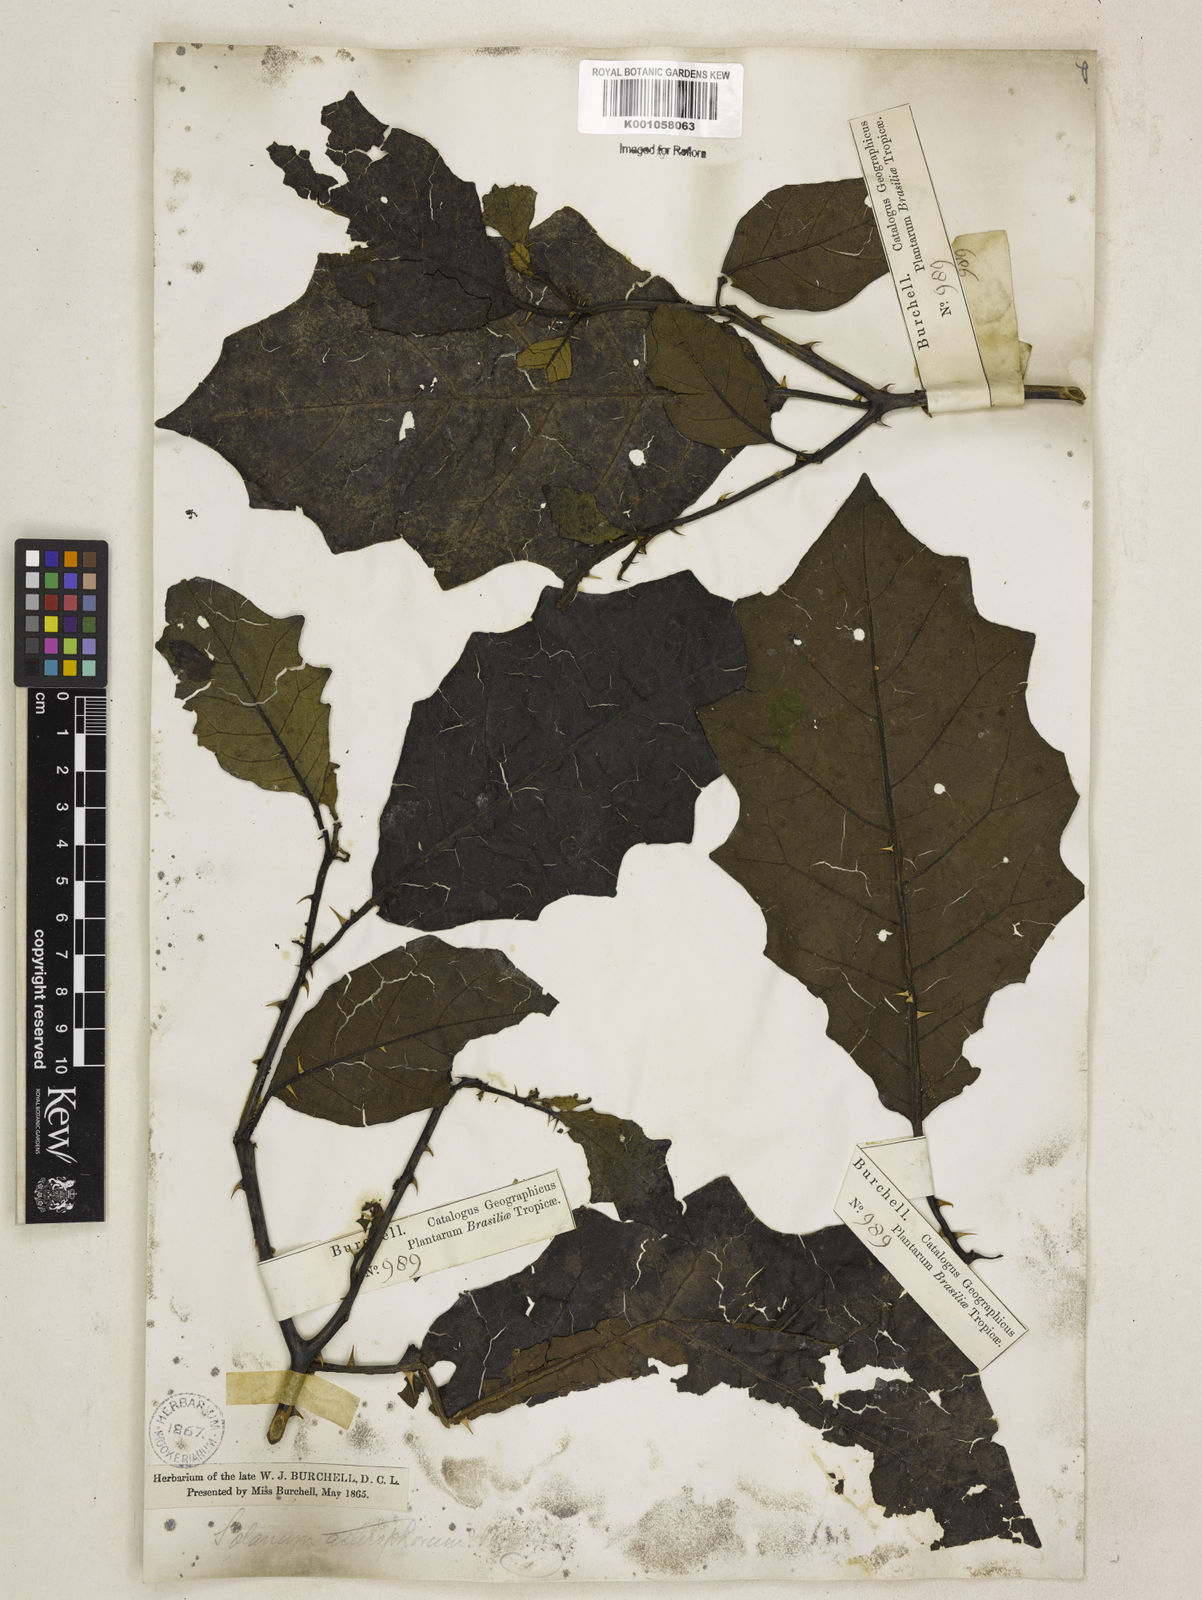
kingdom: Plantae
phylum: Tracheophyta
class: Magnoliopsida
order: Solanales
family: Solanaceae
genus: Solanum
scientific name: Solanum asterophorum
